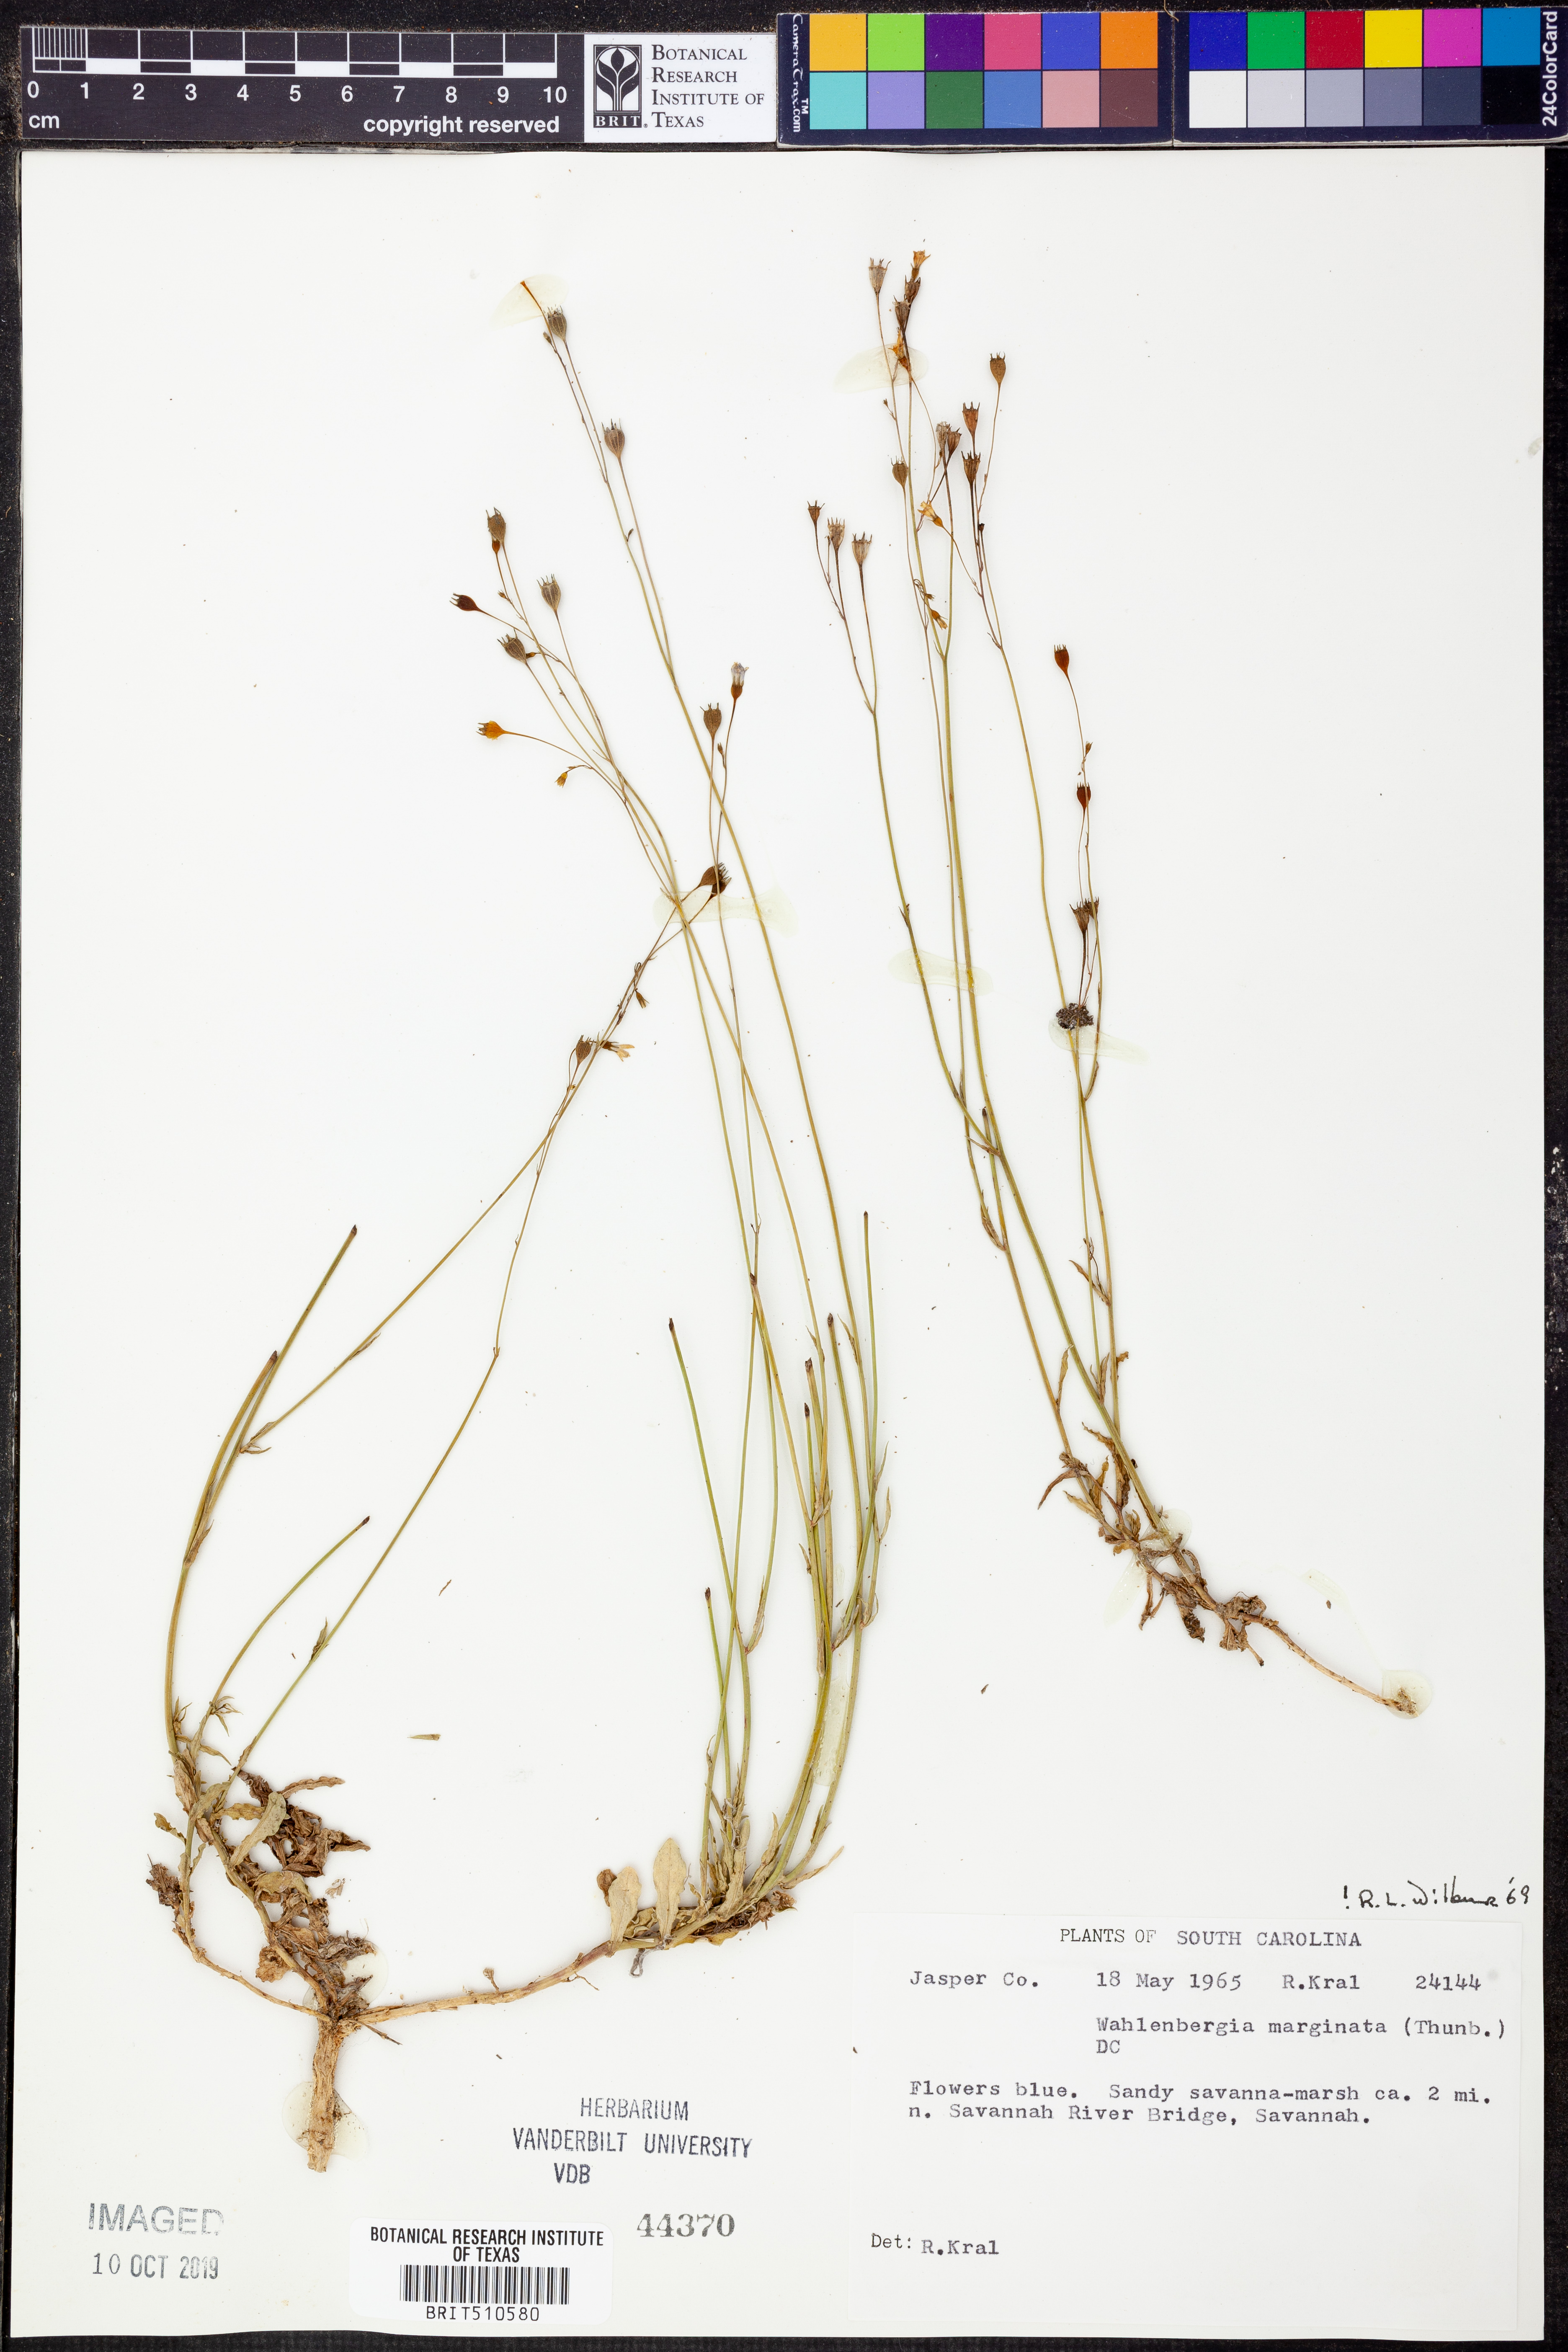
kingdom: Plantae
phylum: Tracheophyta
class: Magnoliopsida
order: Asterales
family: Campanulaceae
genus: Wahlenbergia
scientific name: Wahlenbergia marginata
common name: Southern rockbell
